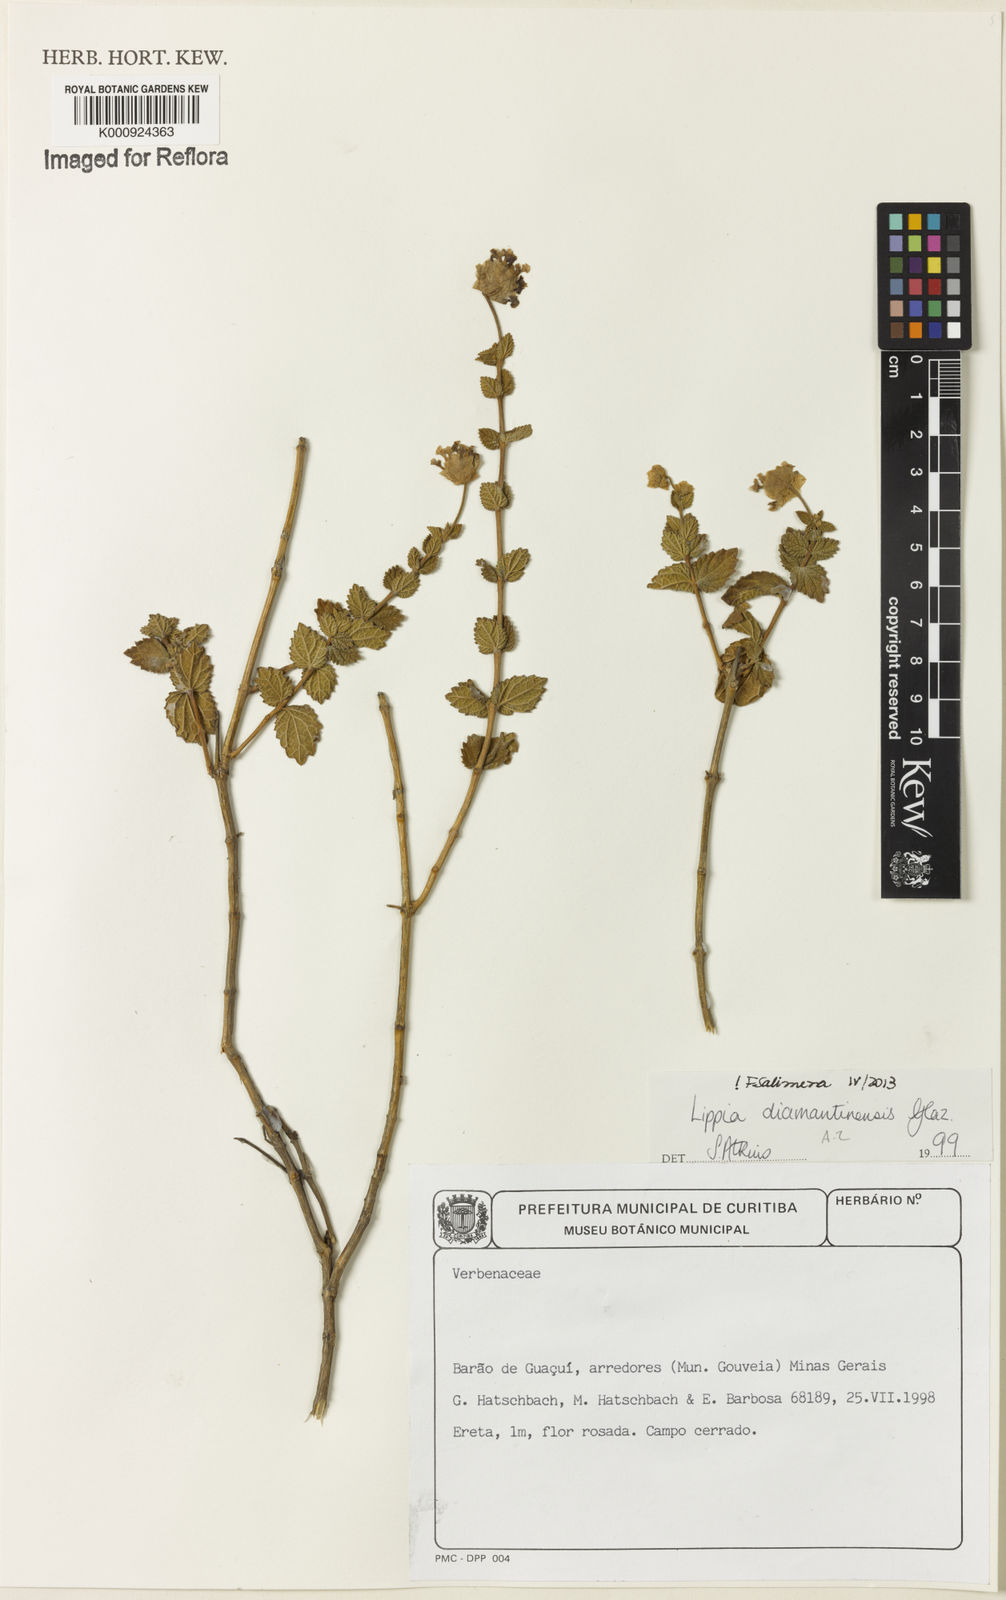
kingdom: Plantae
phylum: Tracheophyta
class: Magnoliopsida
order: Lamiales
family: Verbenaceae
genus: Lippia
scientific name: Lippia diamantinensis
